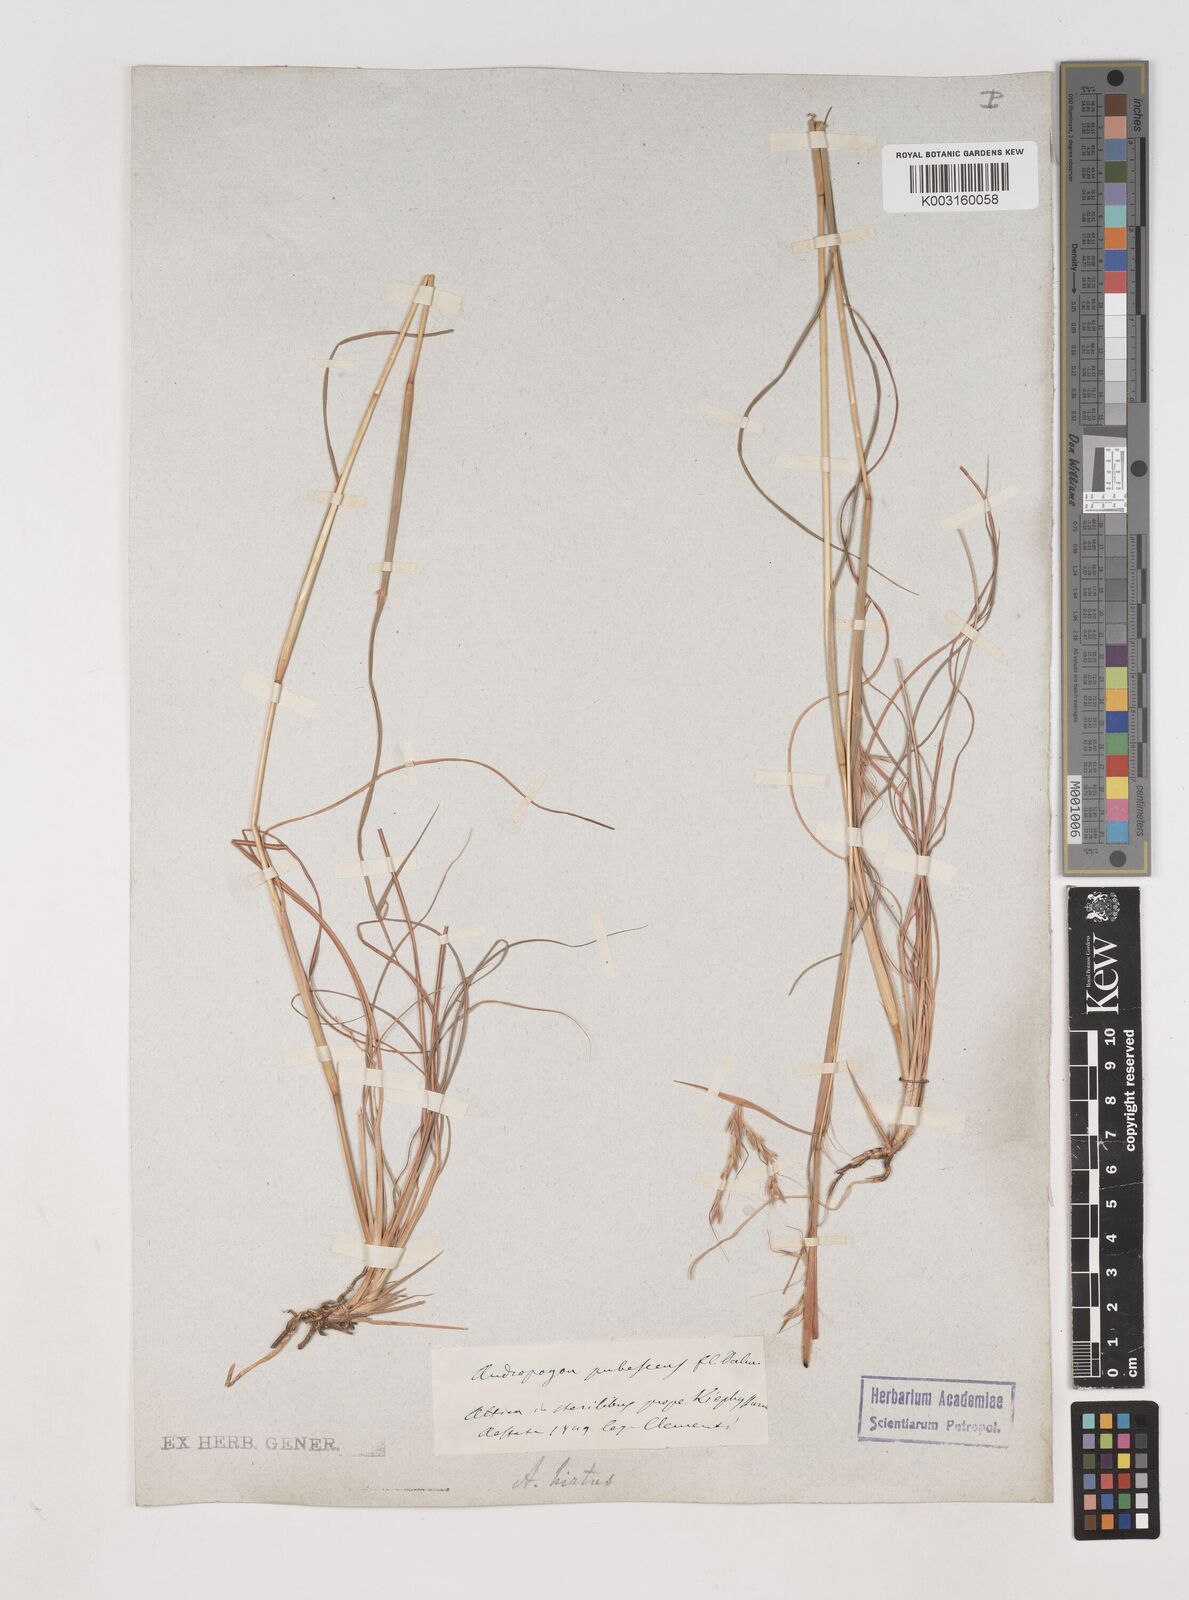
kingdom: Plantae
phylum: Tracheophyta
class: Liliopsida
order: Poales
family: Poaceae
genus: Hyparrhenia
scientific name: Hyparrhenia hirta
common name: Thatching grass
